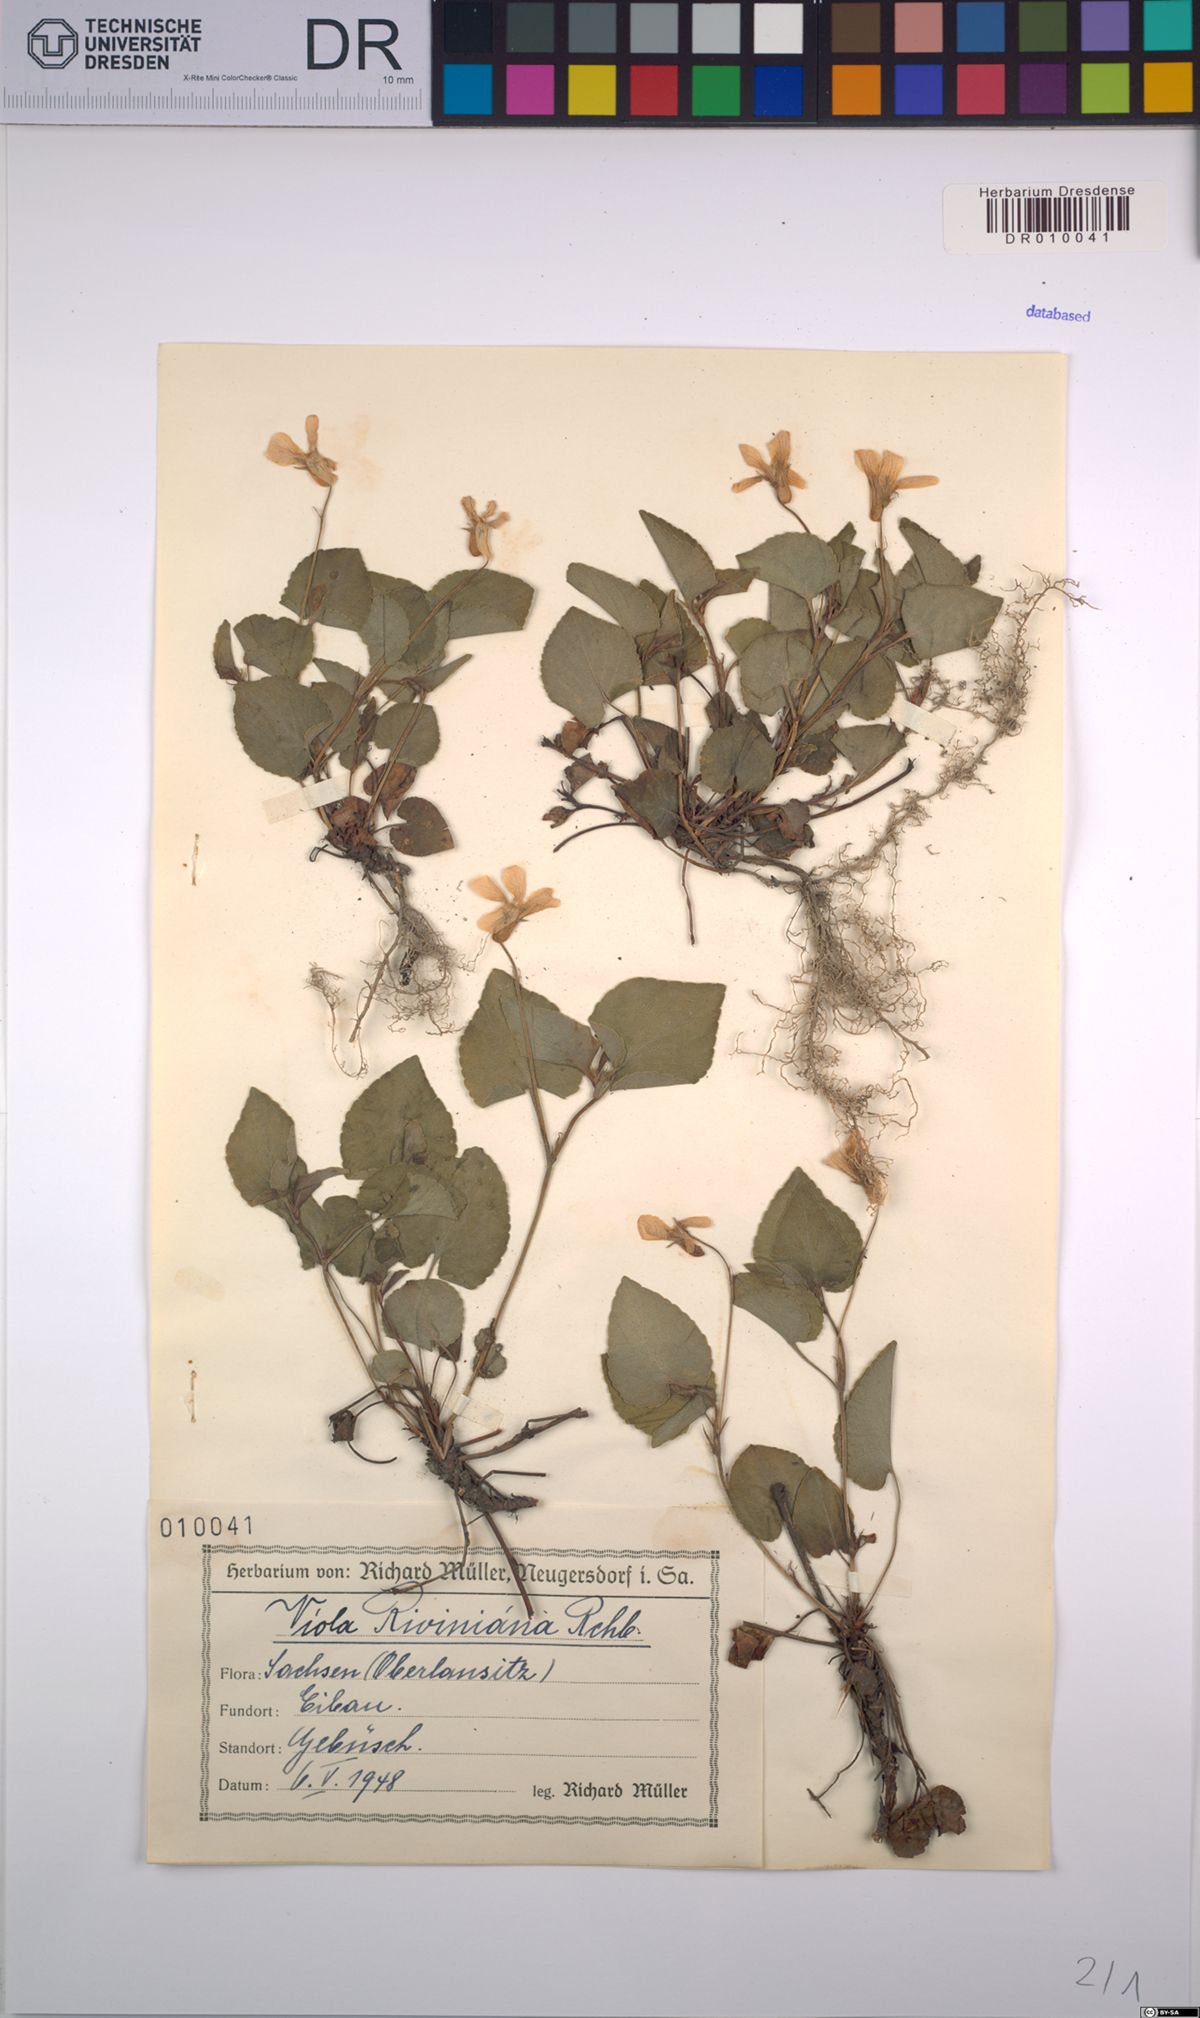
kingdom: Plantae
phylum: Tracheophyta
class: Magnoliopsida
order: Malpighiales
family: Violaceae
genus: Viola
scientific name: Viola riviniana
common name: Common dog-violet
